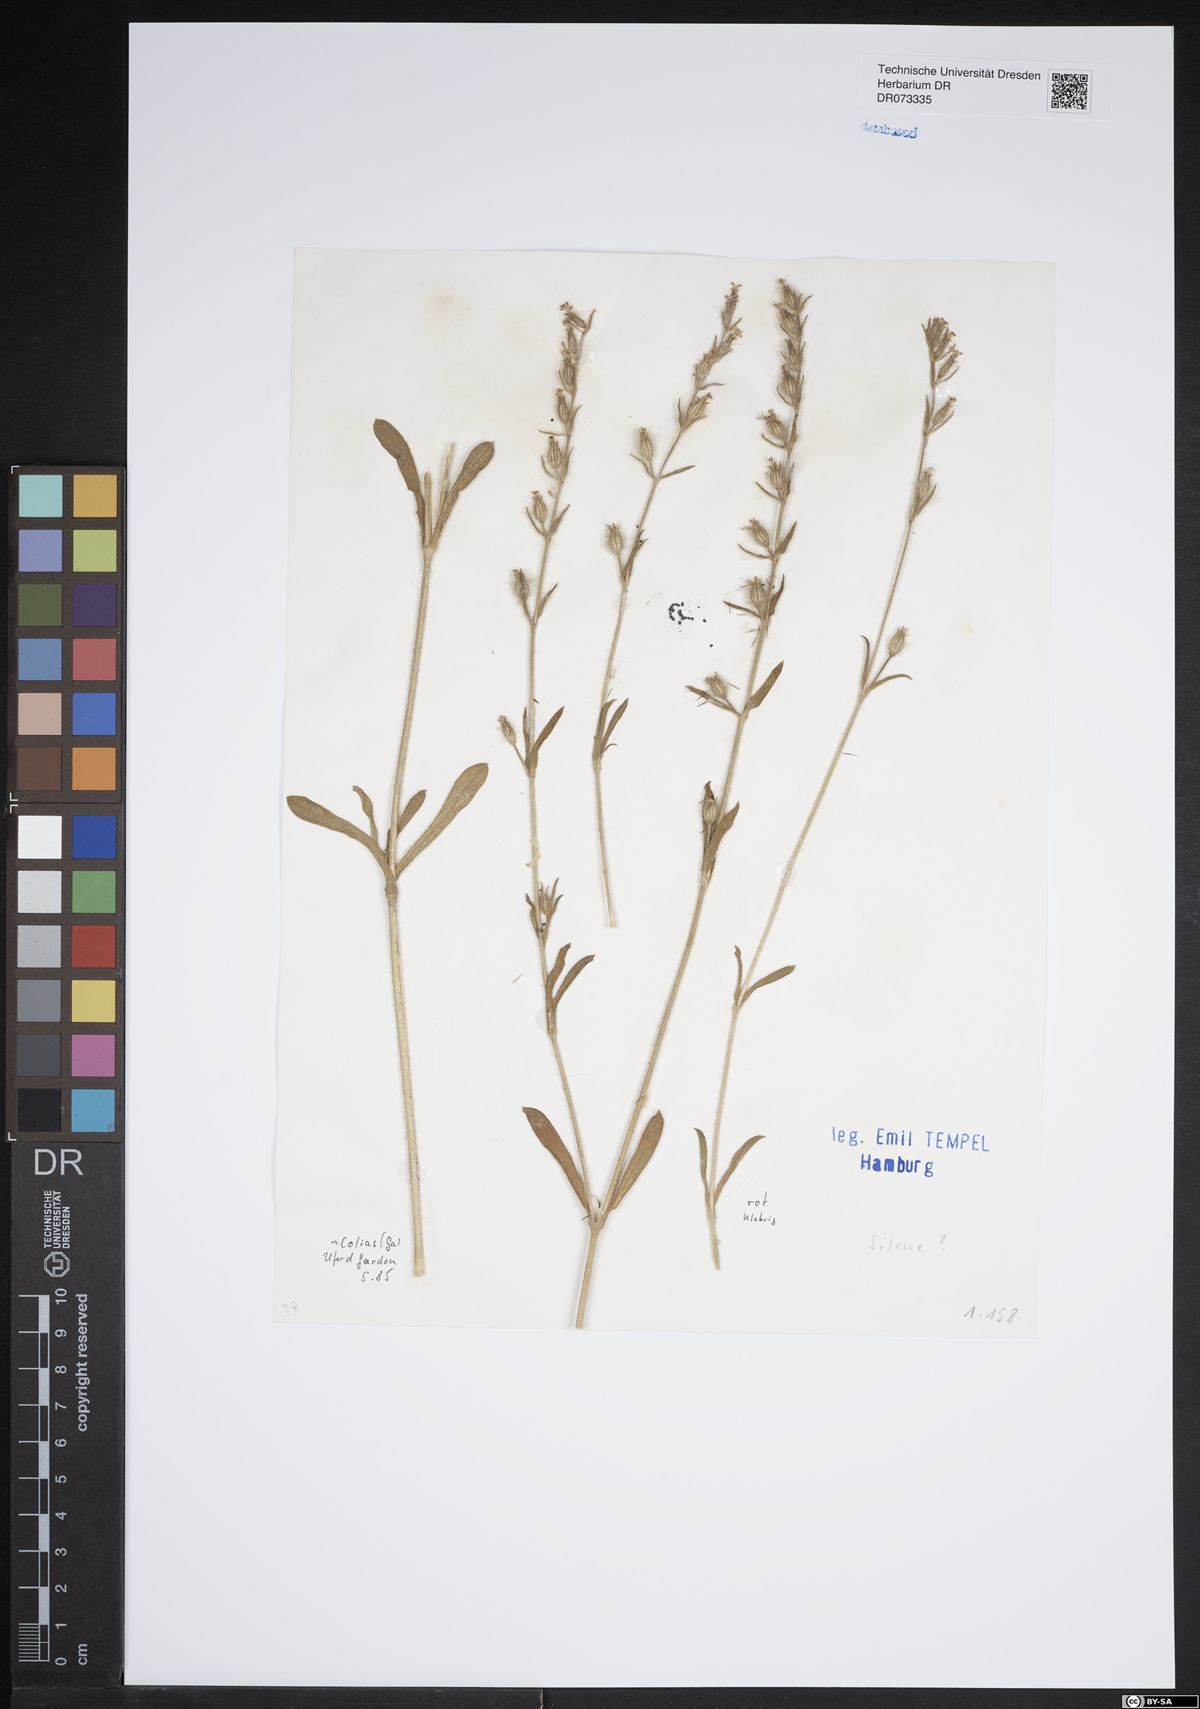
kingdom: Plantae
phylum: Tracheophyta
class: Magnoliopsida
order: Caryophyllales
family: Caryophyllaceae
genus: Silene
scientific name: Silene
